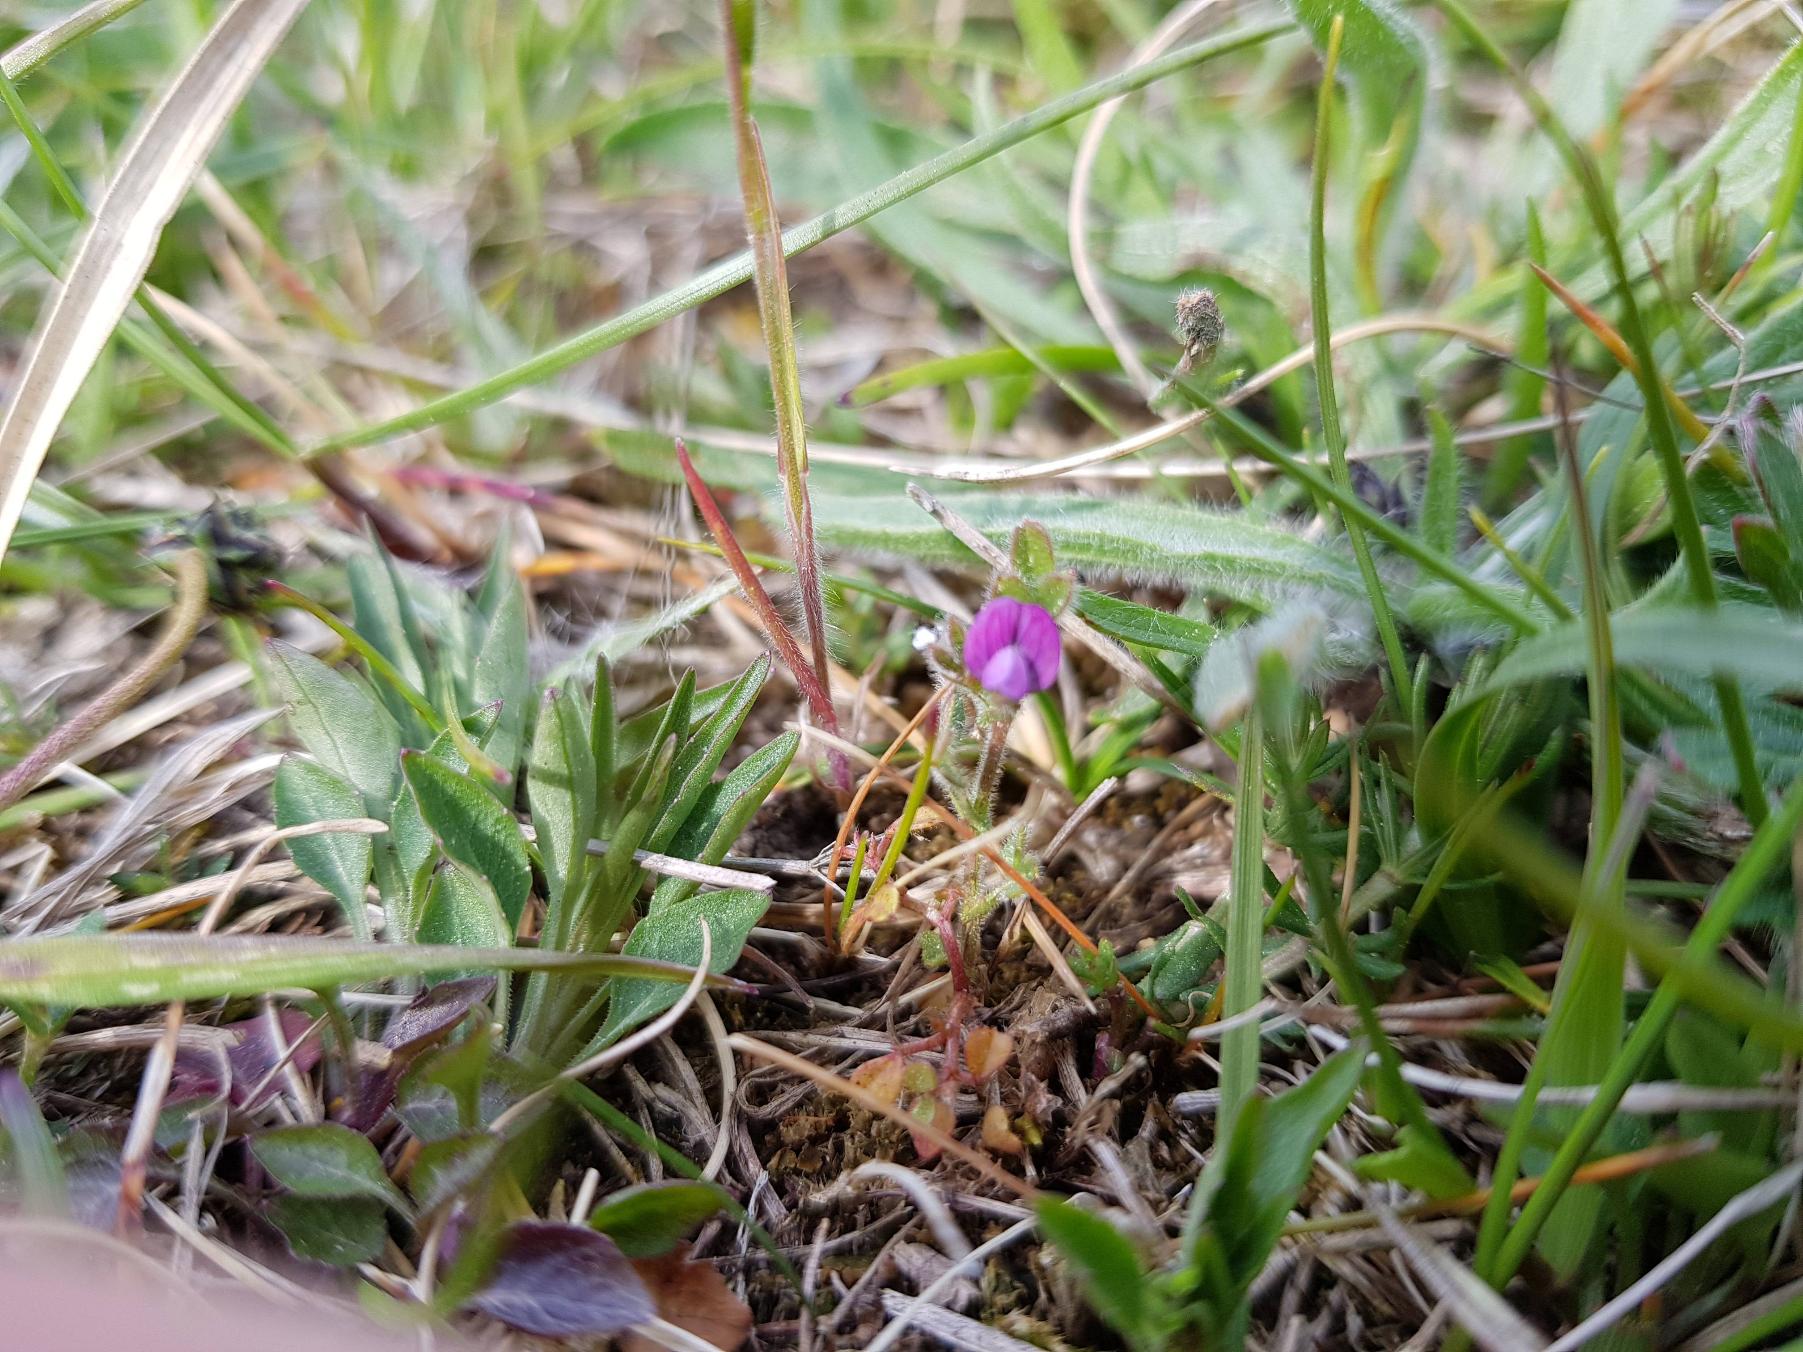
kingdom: Plantae
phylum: Tracheophyta
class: Magnoliopsida
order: Fabales
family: Fabaceae
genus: Vicia
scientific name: Vicia lathyroides
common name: Vår-vikke
